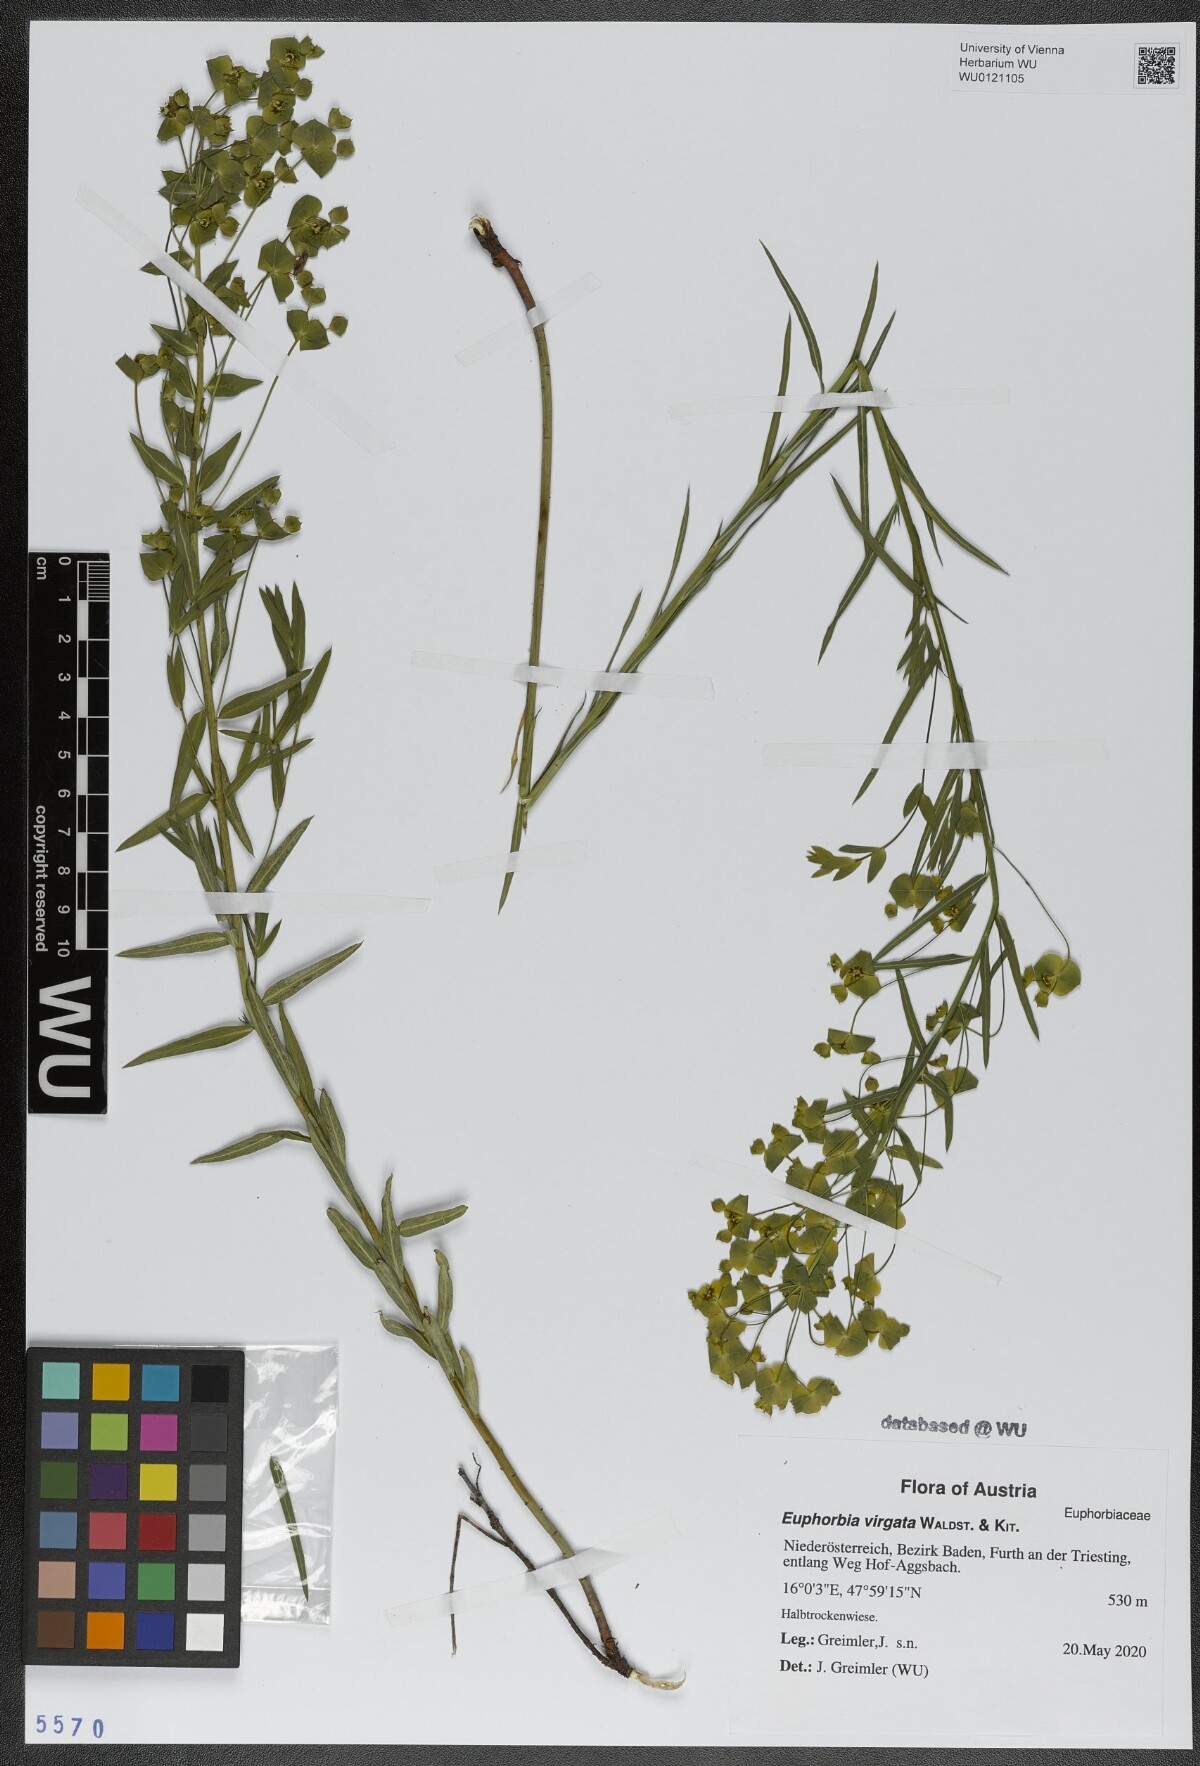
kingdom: Plantae
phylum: Tracheophyta
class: Magnoliopsida
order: Malpighiales
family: Euphorbiaceae
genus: Euphorbia
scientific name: Euphorbia virgata
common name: Leafy spurge
